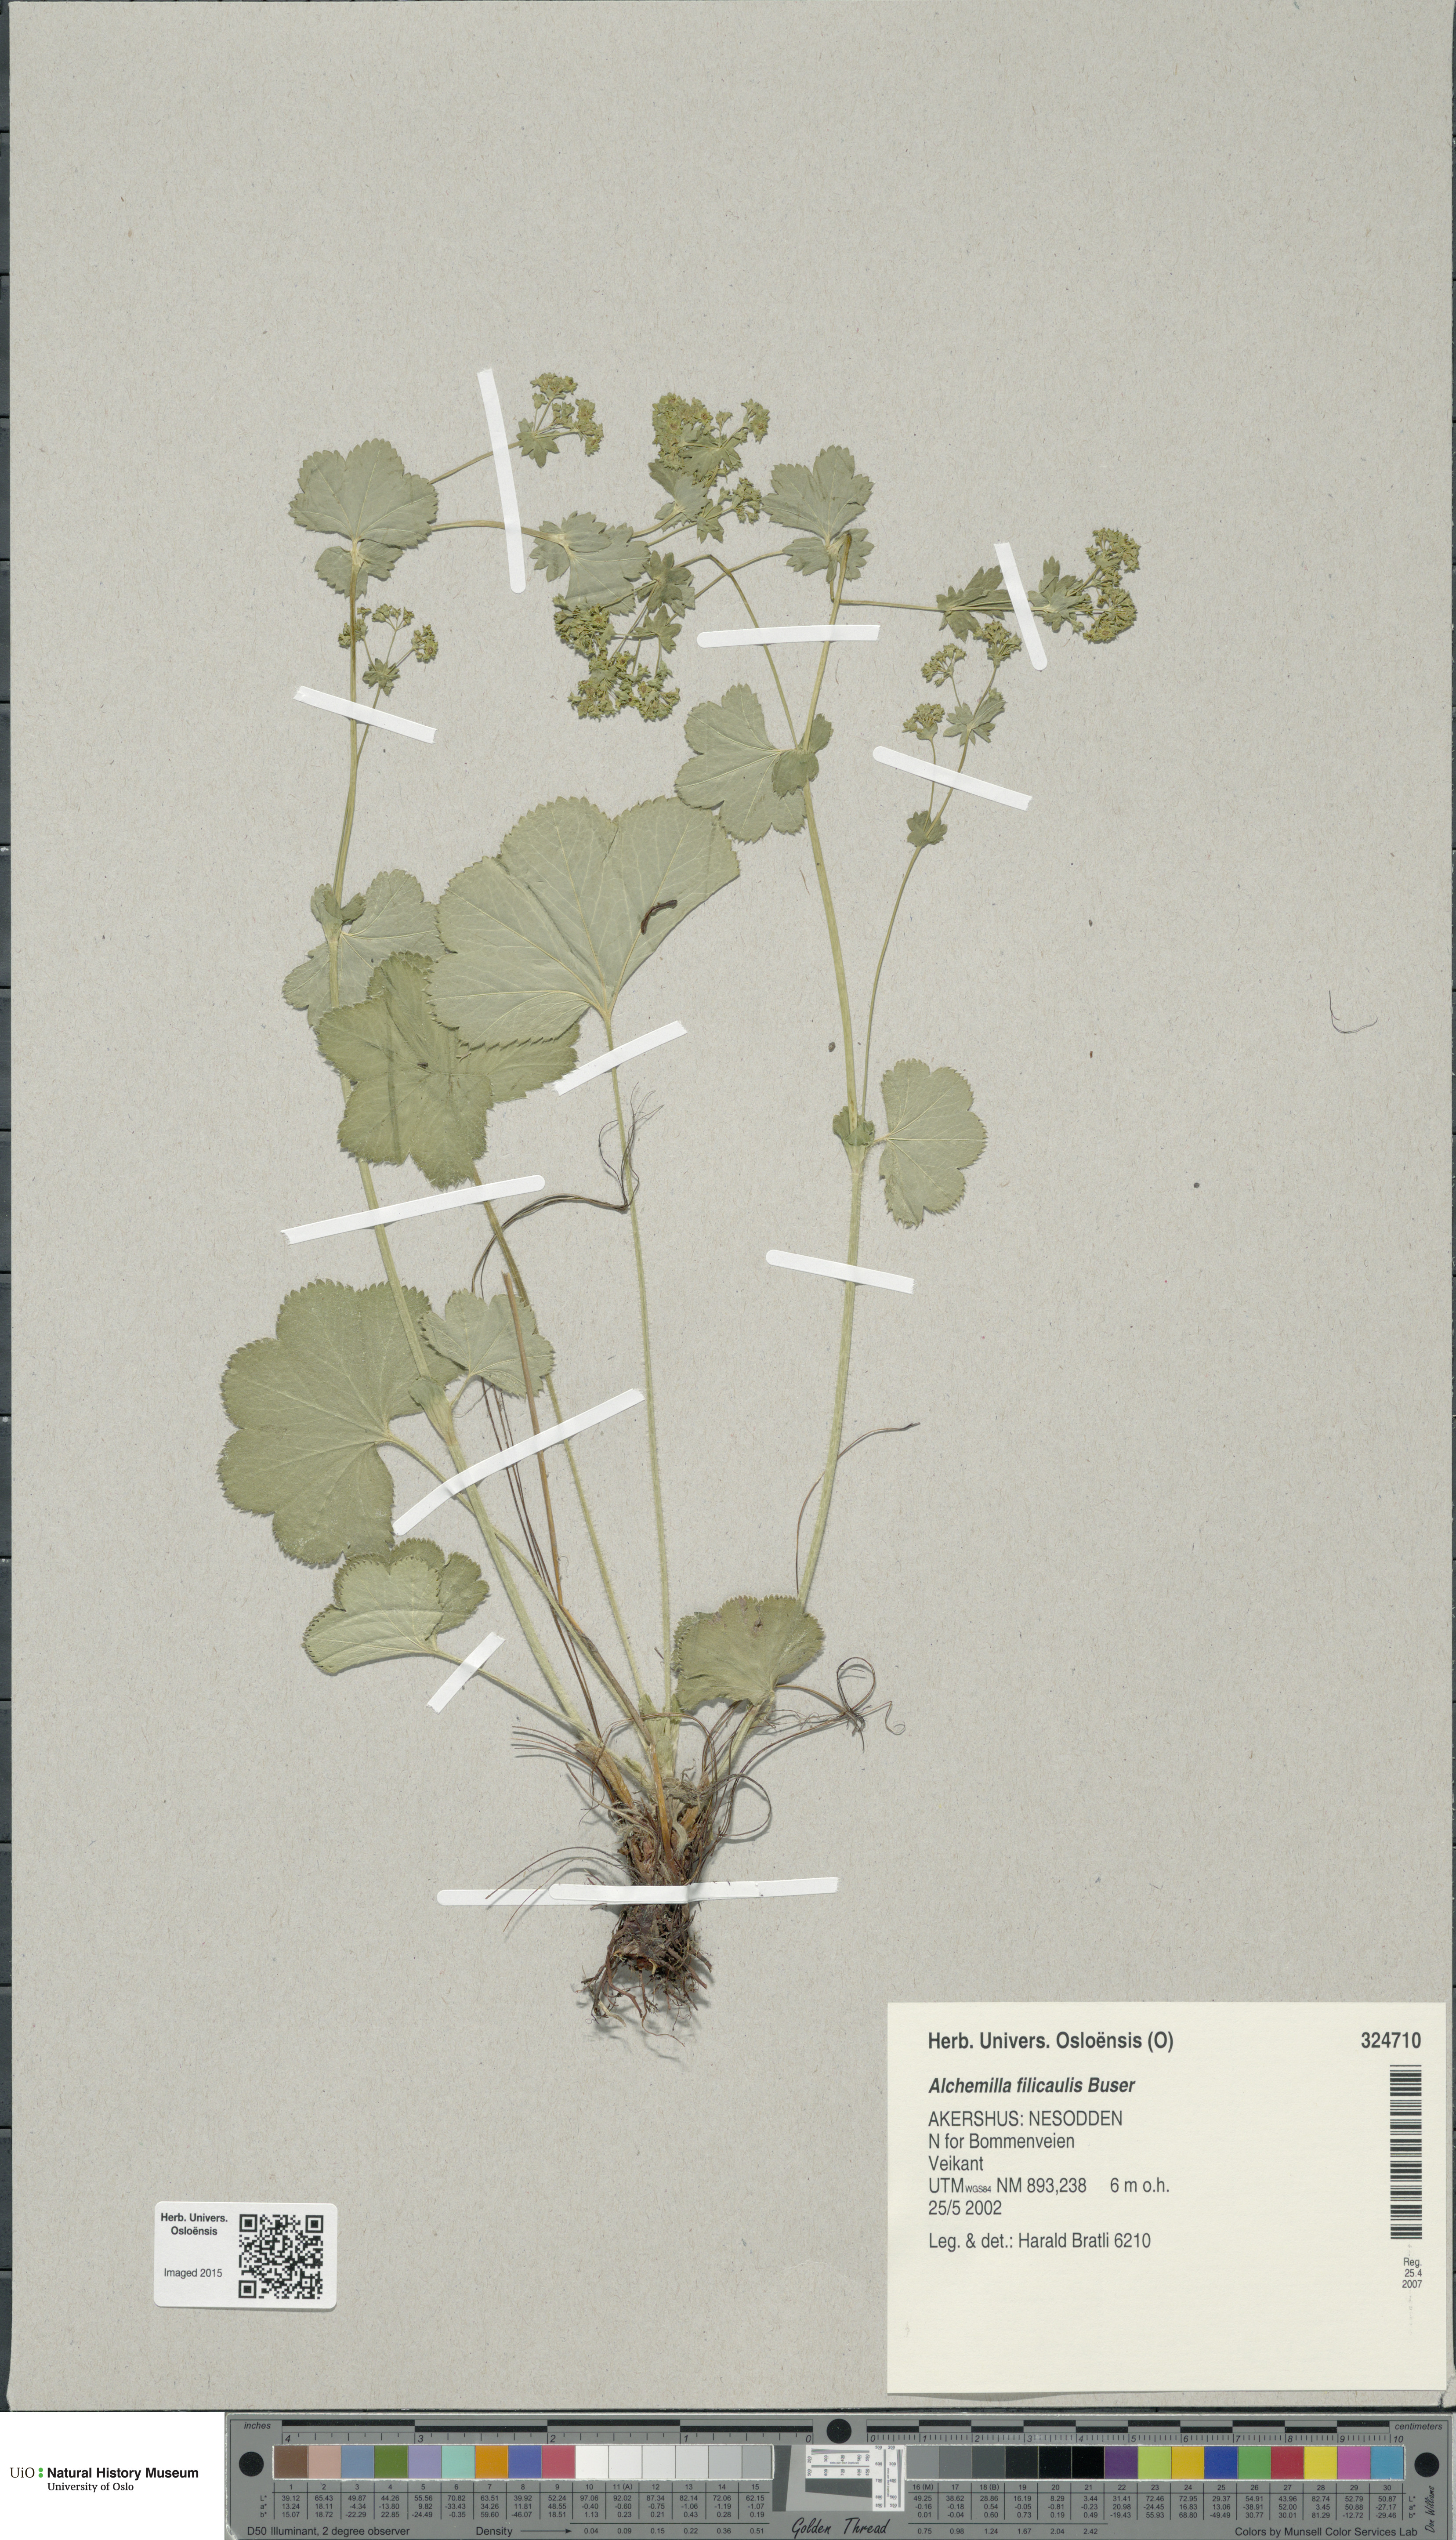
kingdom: Plantae
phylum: Tracheophyta
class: Magnoliopsida
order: Rosales
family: Rosaceae
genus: Alchemilla
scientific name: Alchemilla filicaulis
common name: Hairy lady's-mantle
